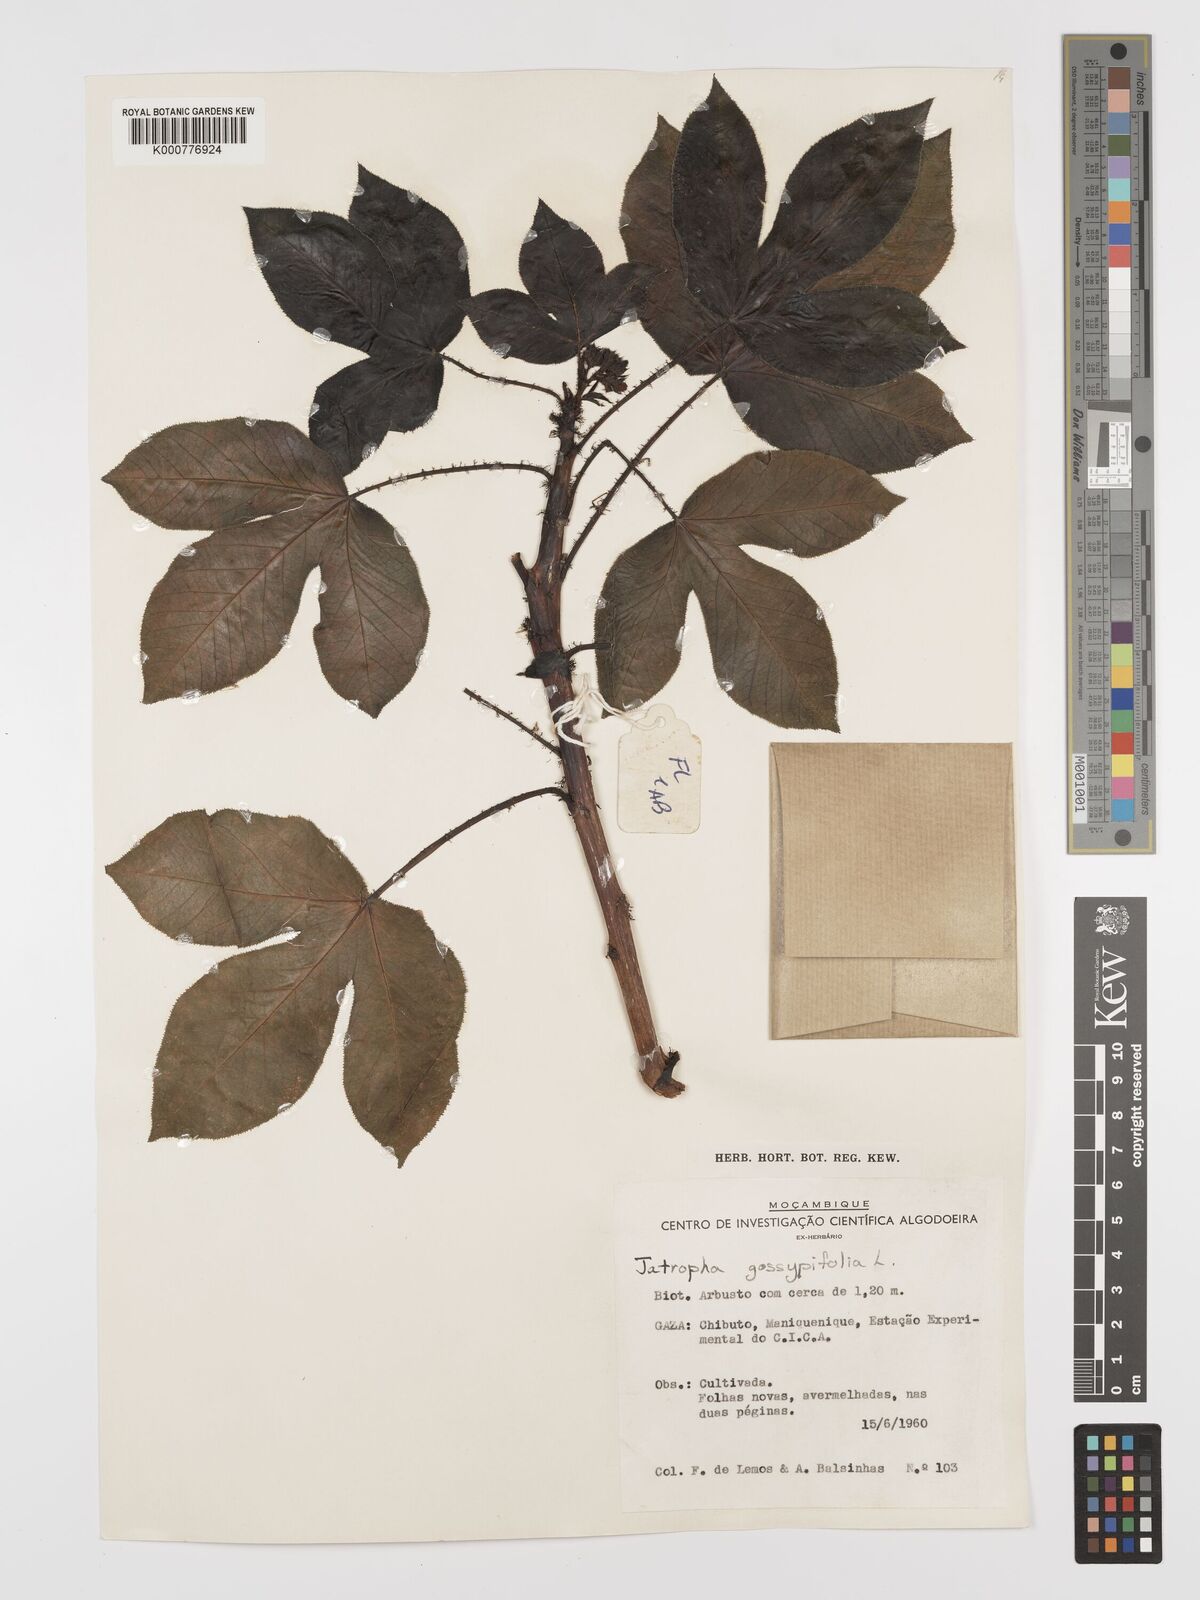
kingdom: Plantae
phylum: Tracheophyta
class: Magnoliopsida
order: Malpighiales
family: Euphorbiaceae
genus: Jatropha
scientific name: Jatropha gossypiifolia
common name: Bellyache bush
